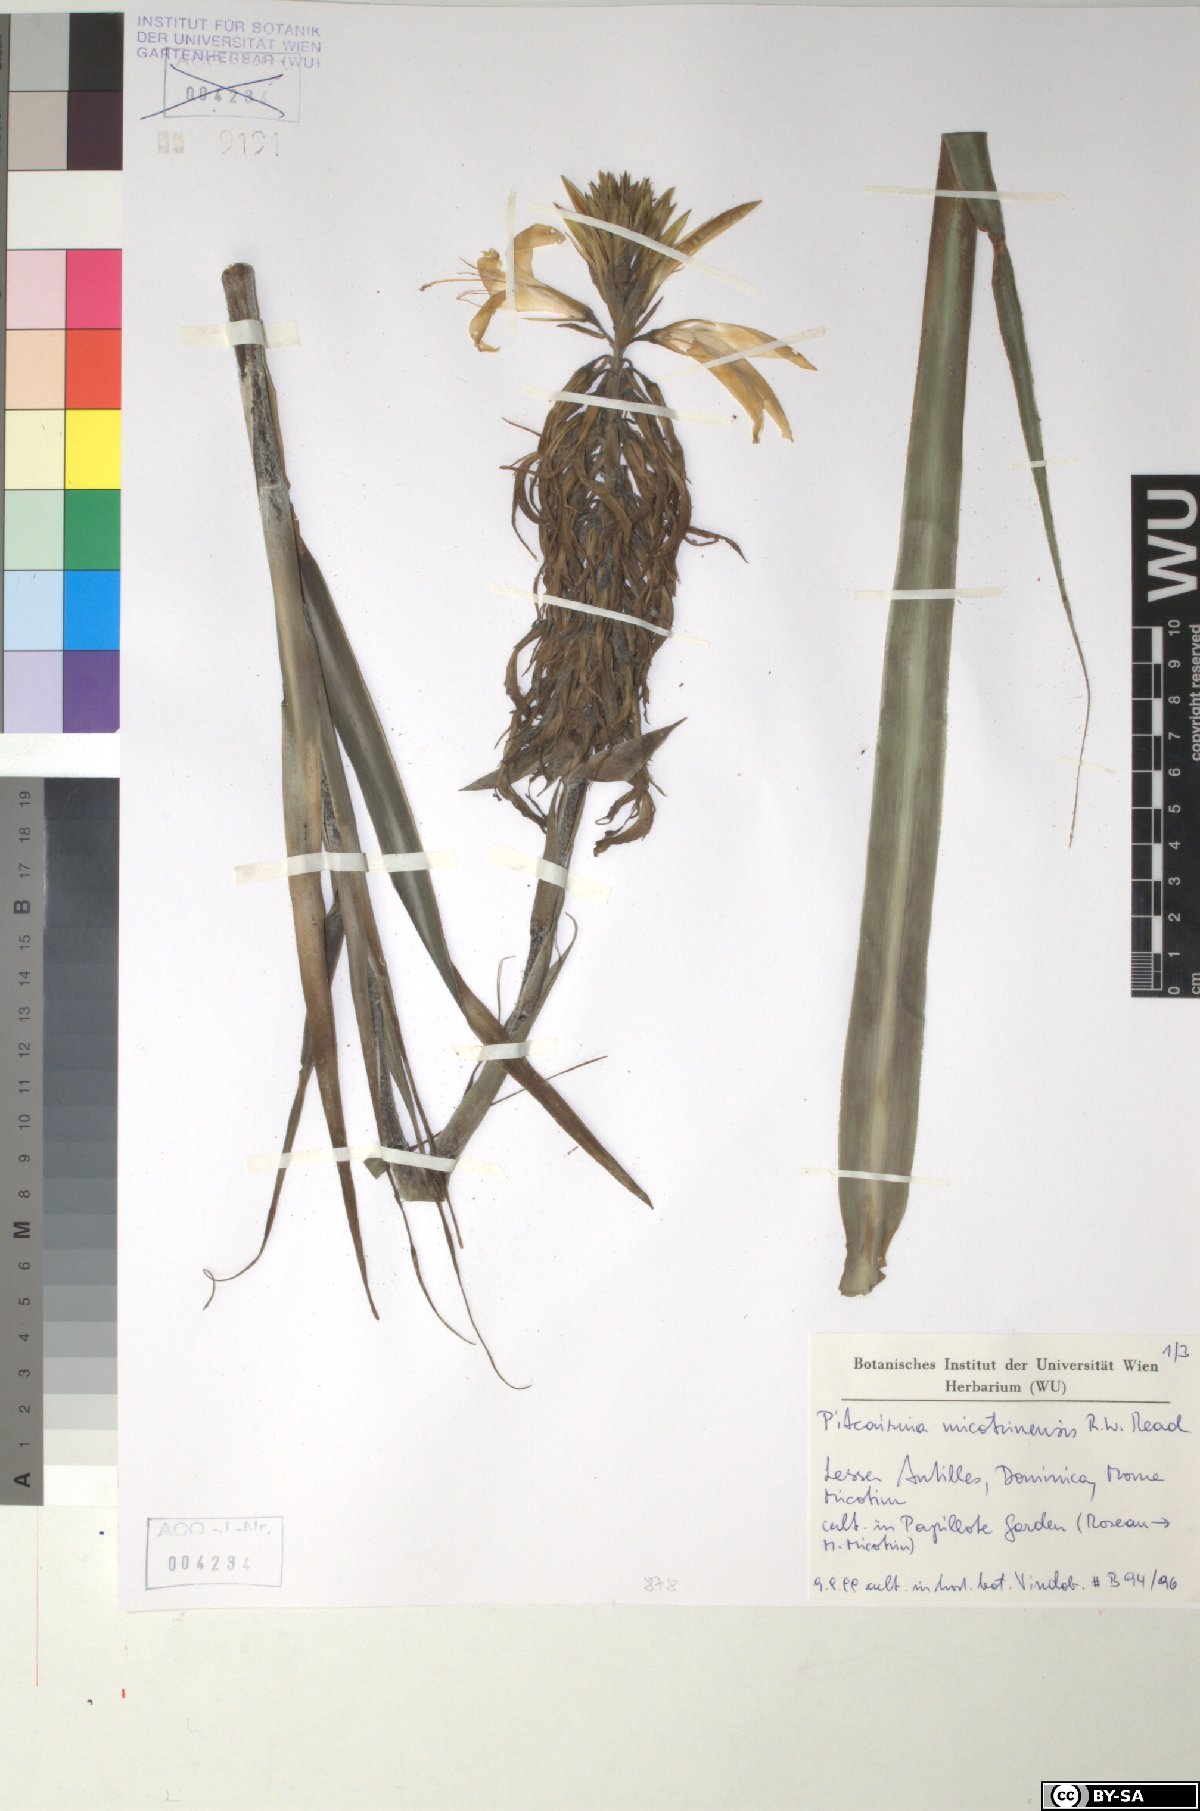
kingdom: Plantae
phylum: Tracheophyta
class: Liliopsida
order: Poales
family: Bromeliaceae
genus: Pitcairnia
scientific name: Pitcairnia micotrinensis
